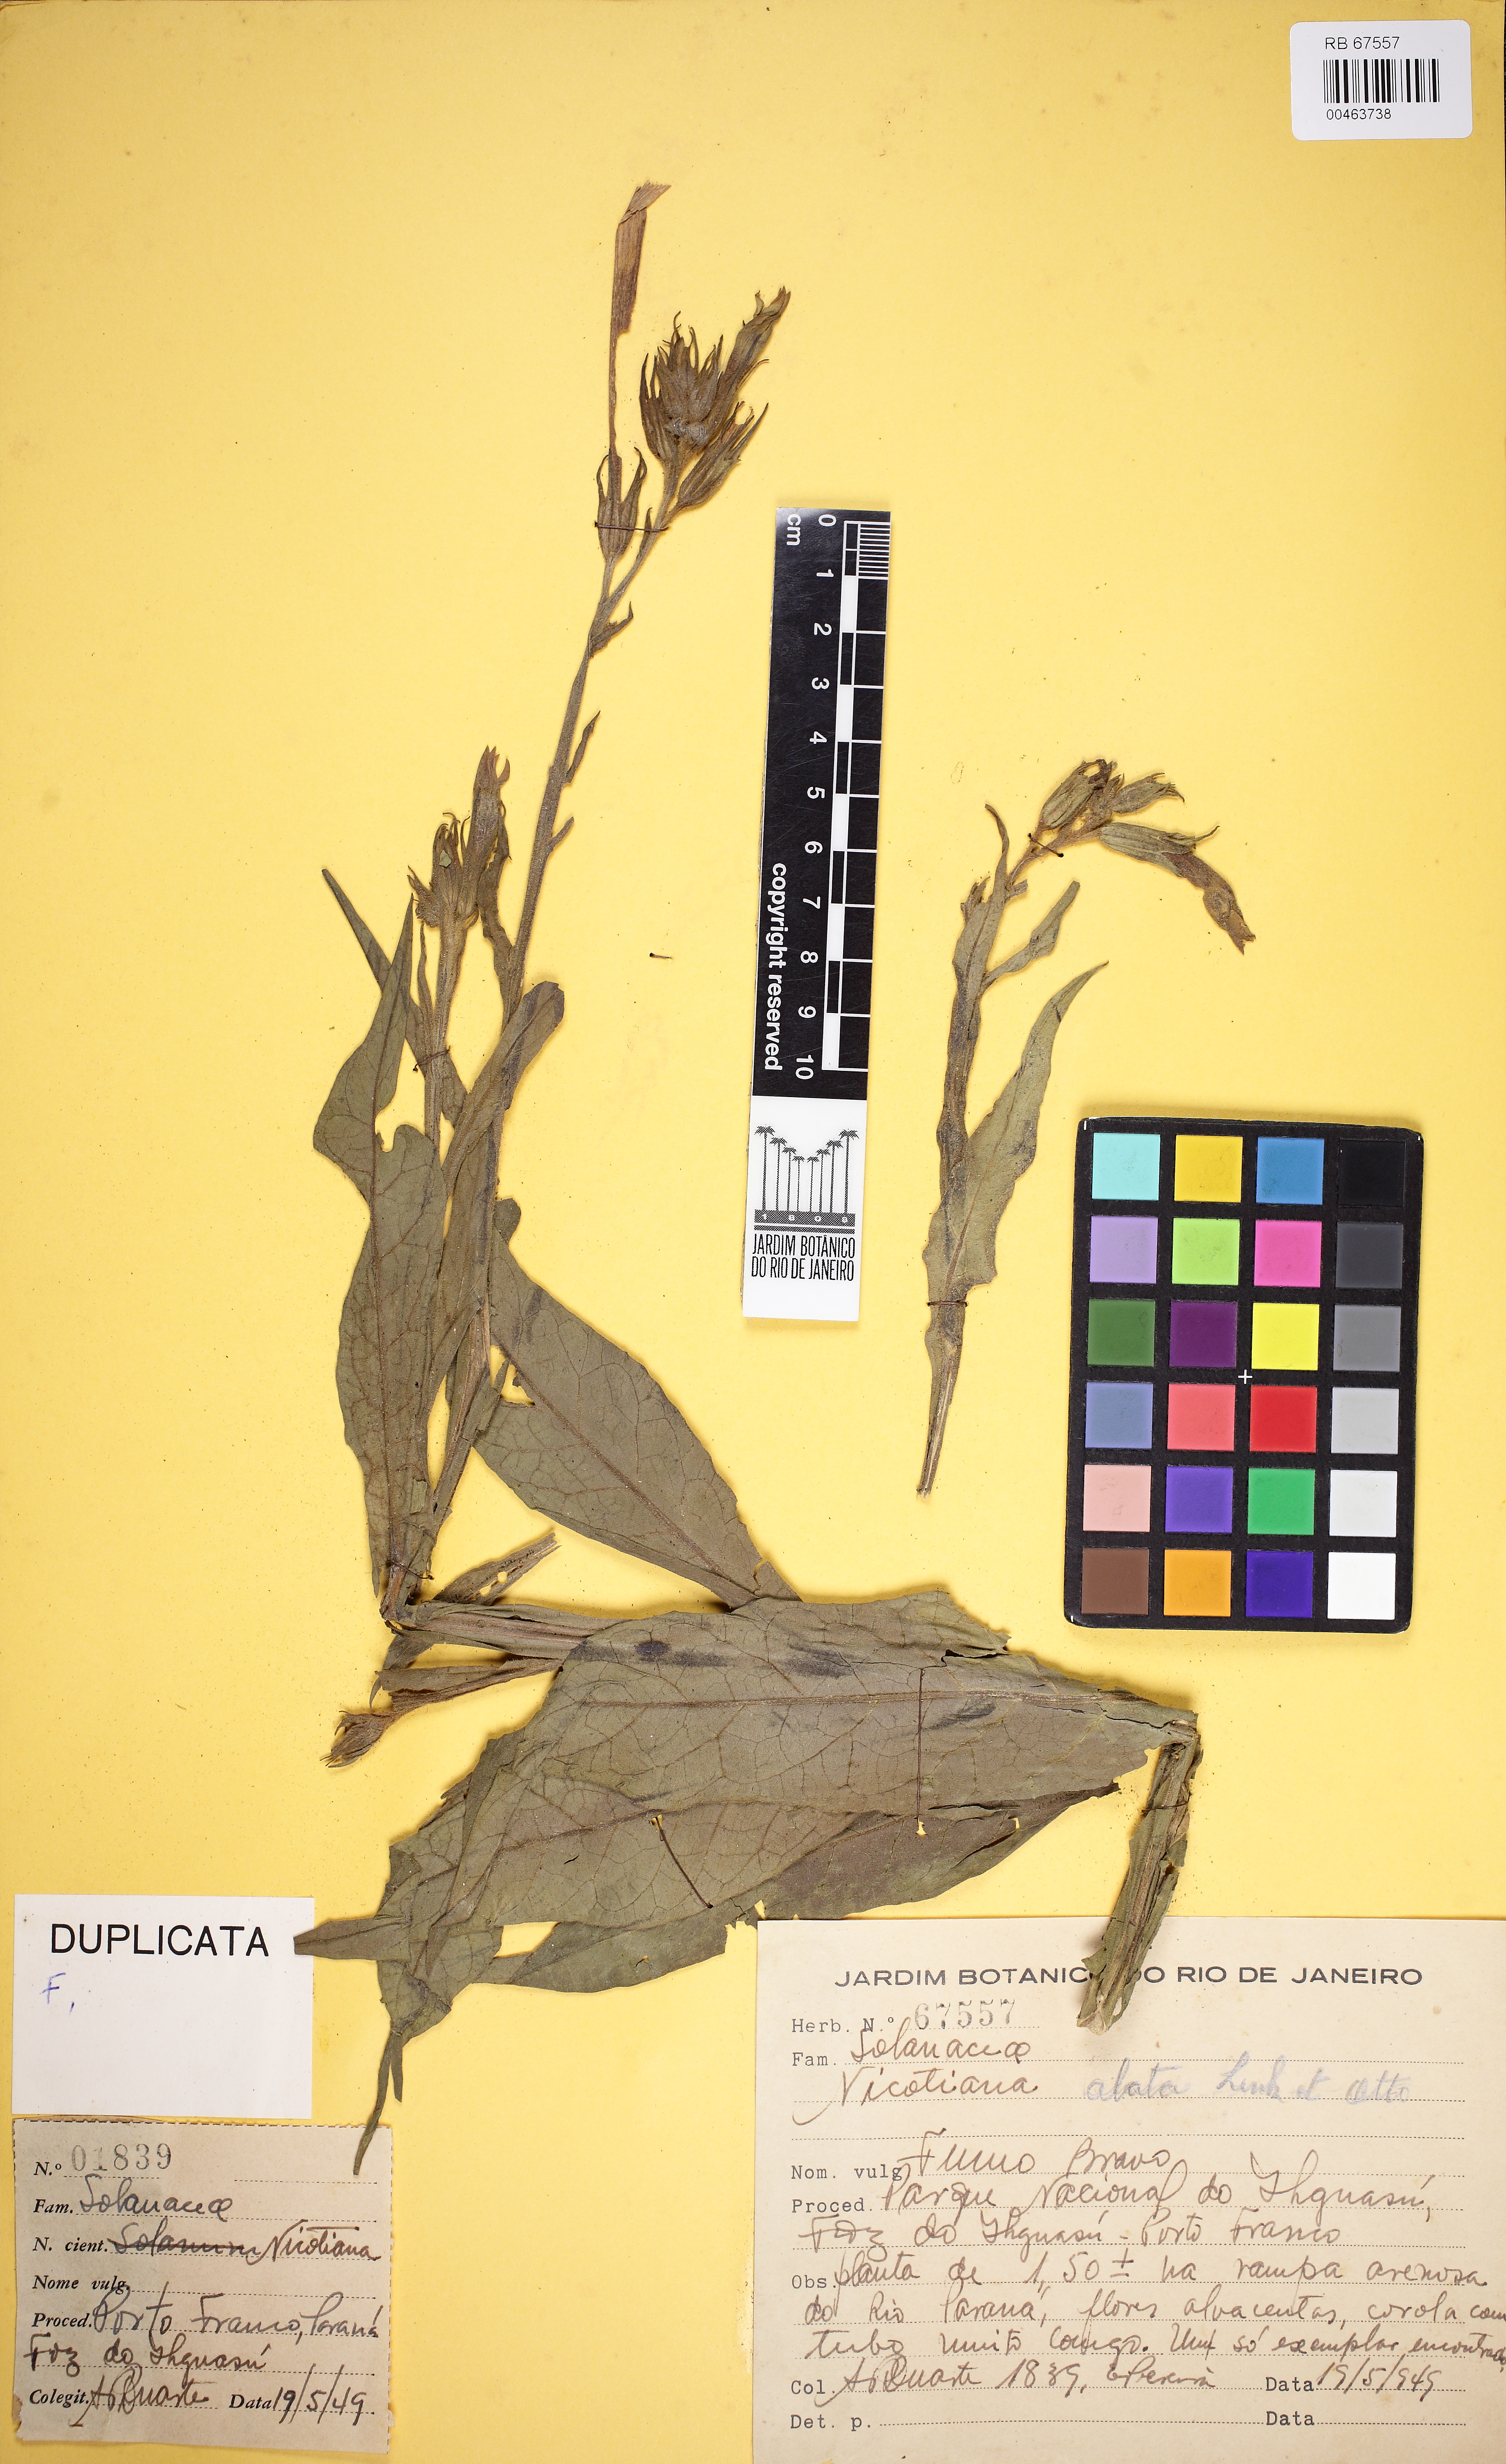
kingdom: Plantae
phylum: Tracheophyta
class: Magnoliopsida
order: Solanales
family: Solanaceae
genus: Nicotiana
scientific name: Nicotiana alata
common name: Jasmine tobacco
